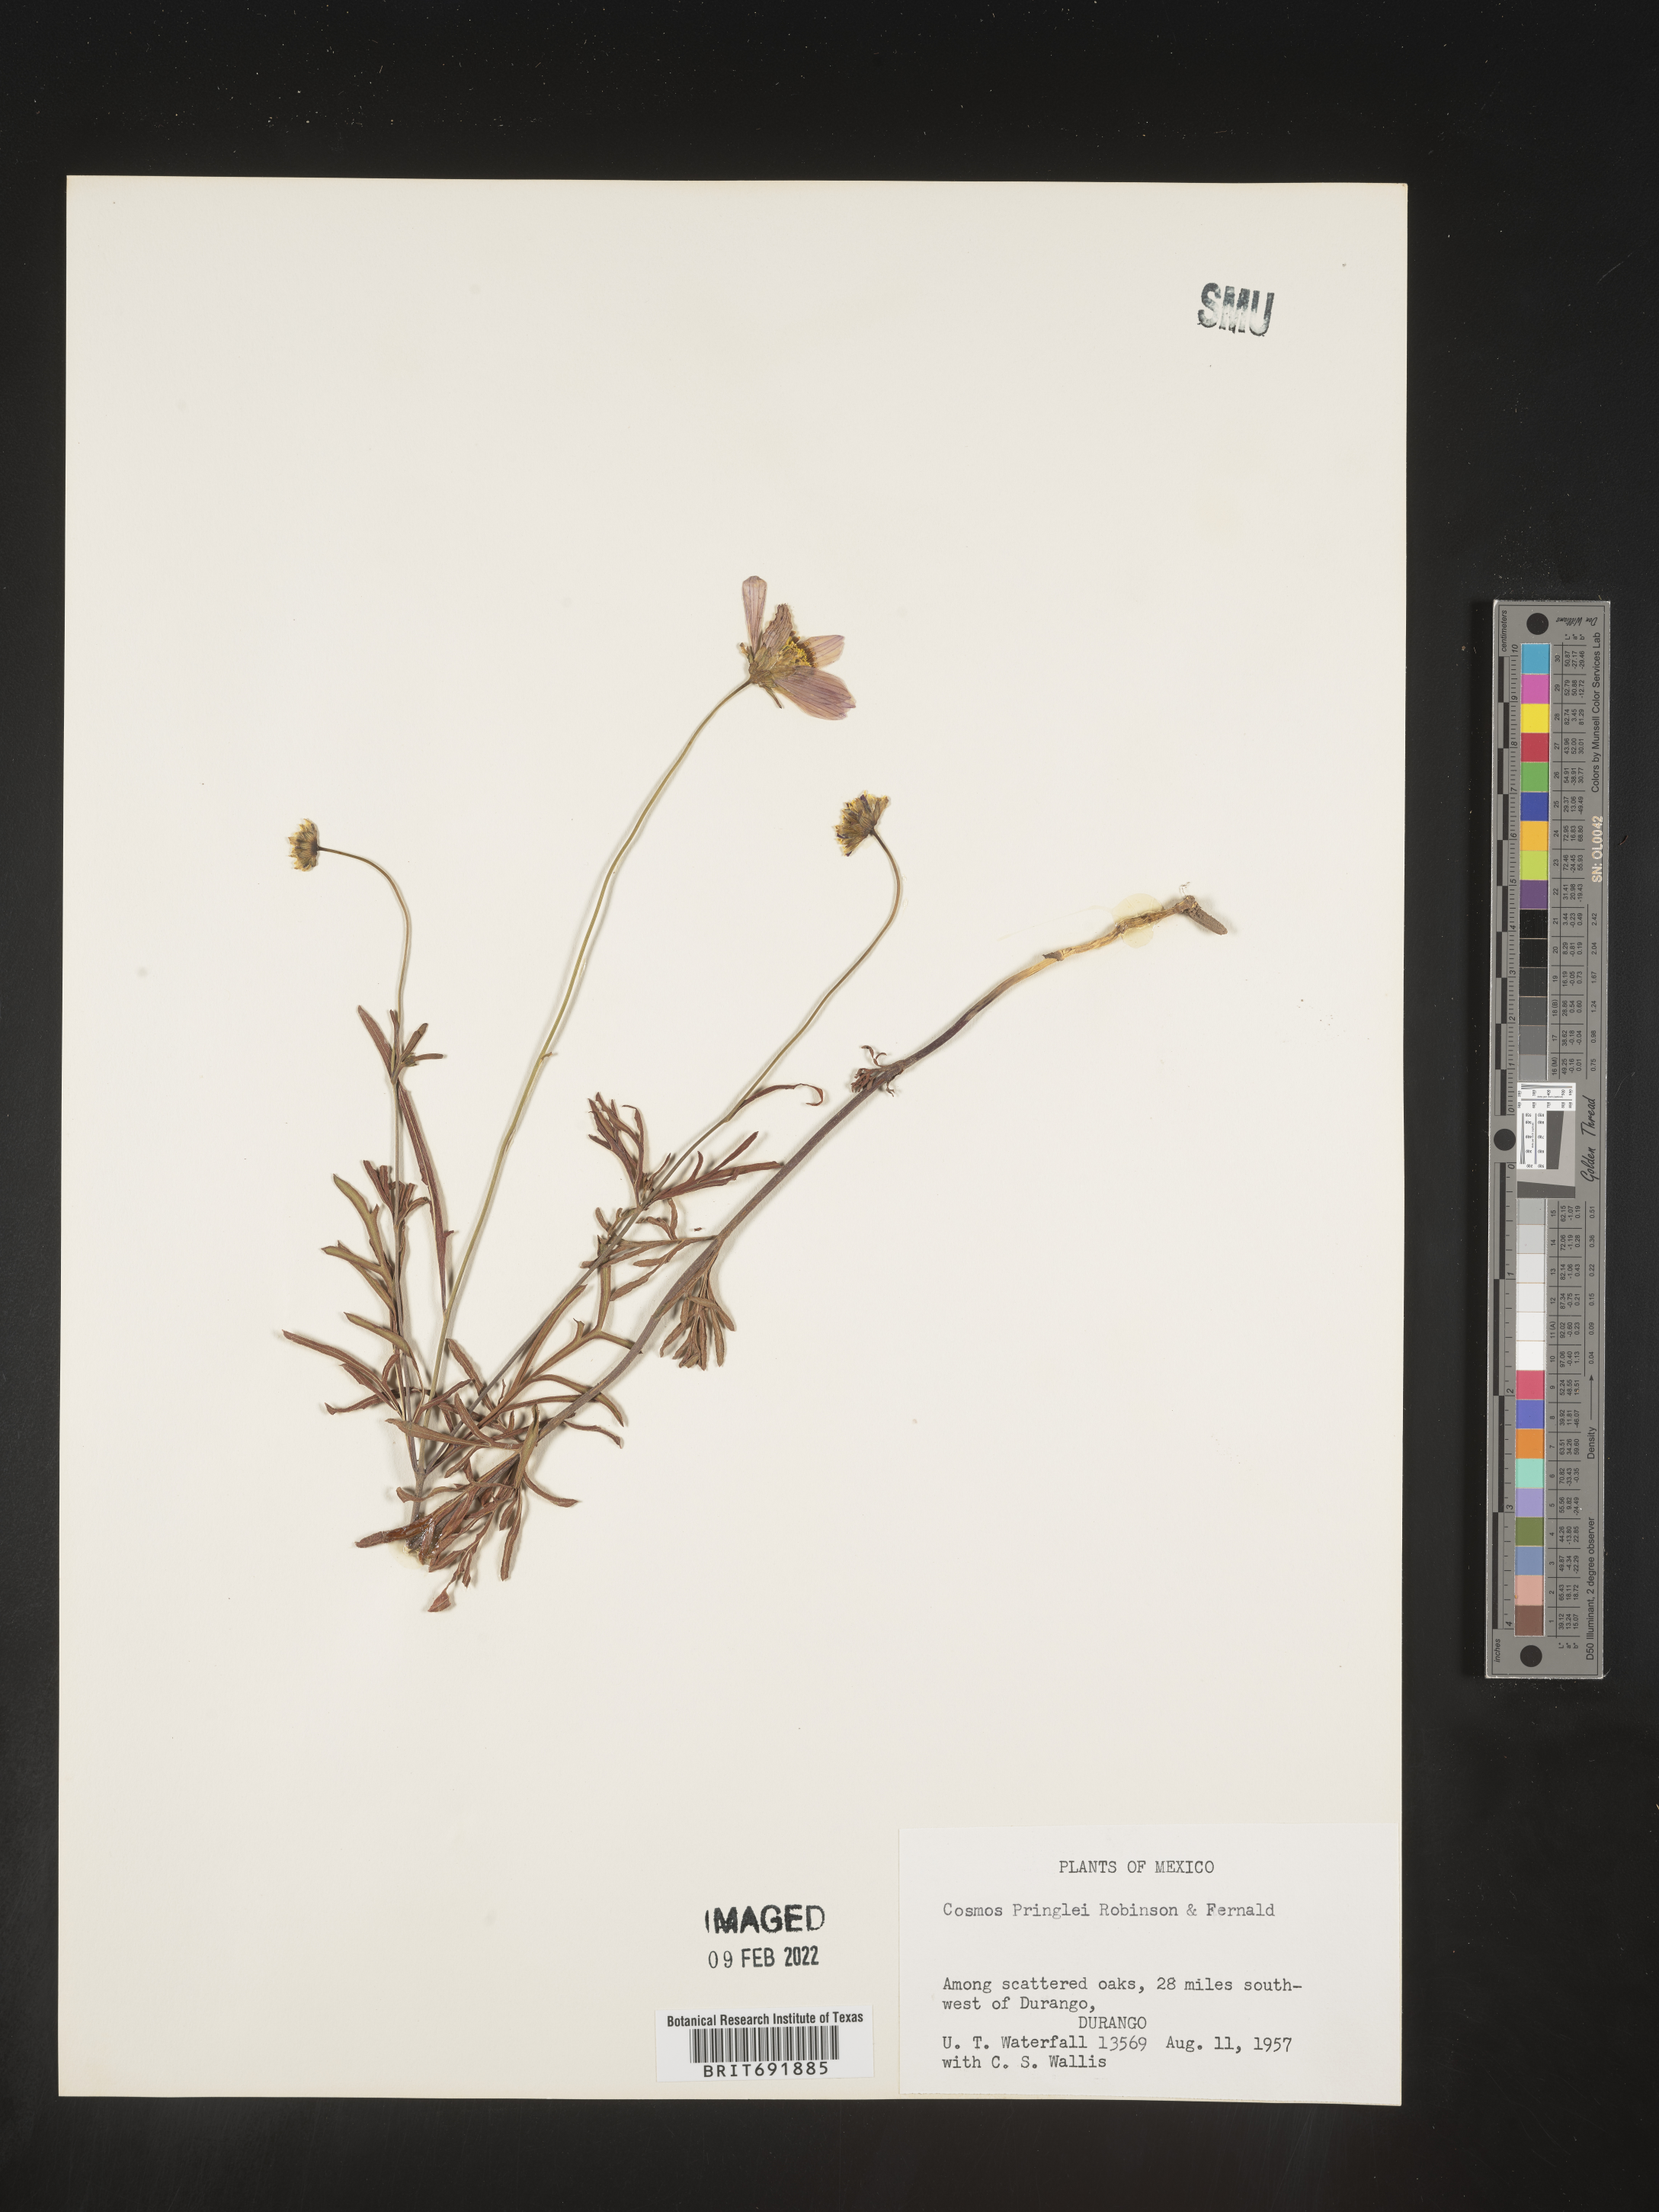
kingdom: Plantae
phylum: Tracheophyta
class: Magnoliopsida
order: Asterales
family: Asteraceae
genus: Cosmos
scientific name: Cosmos
